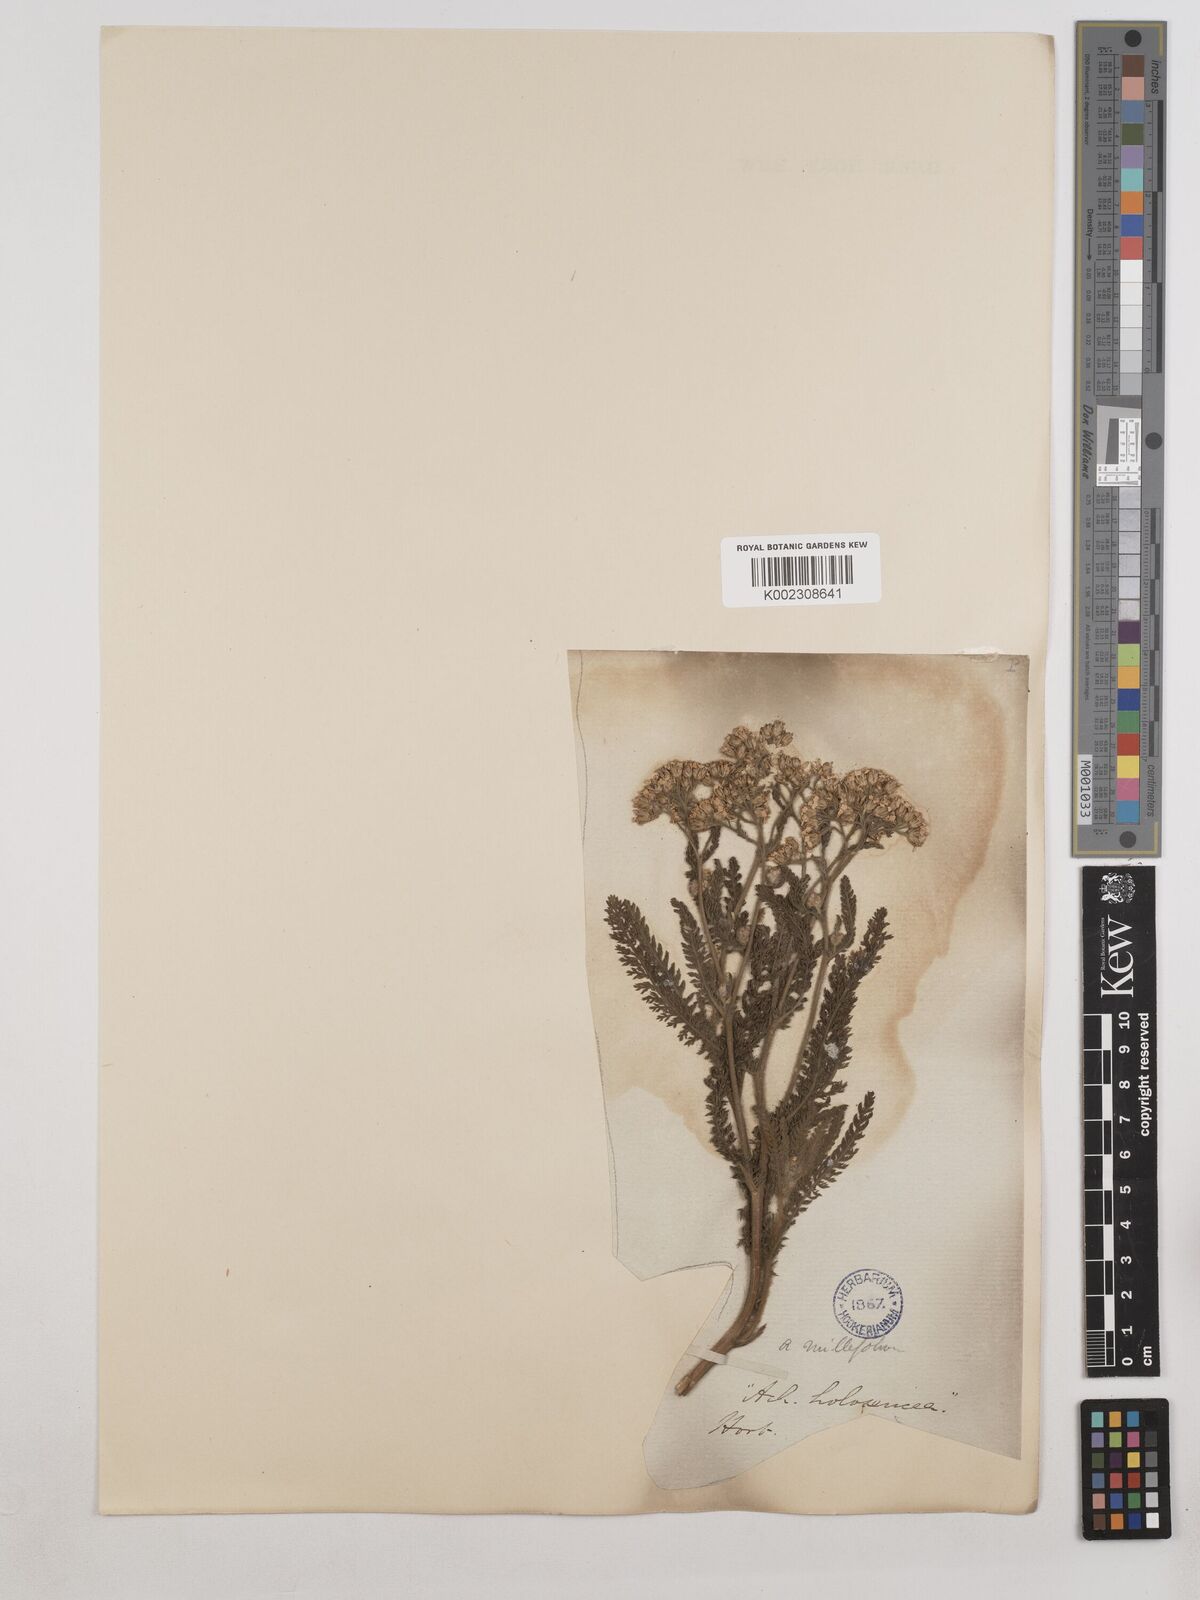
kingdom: Plantae
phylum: Tracheophyta
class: Magnoliopsida
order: Asterales
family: Asteraceae
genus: Achillea
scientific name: Achillea millefolium
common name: Yarrow
